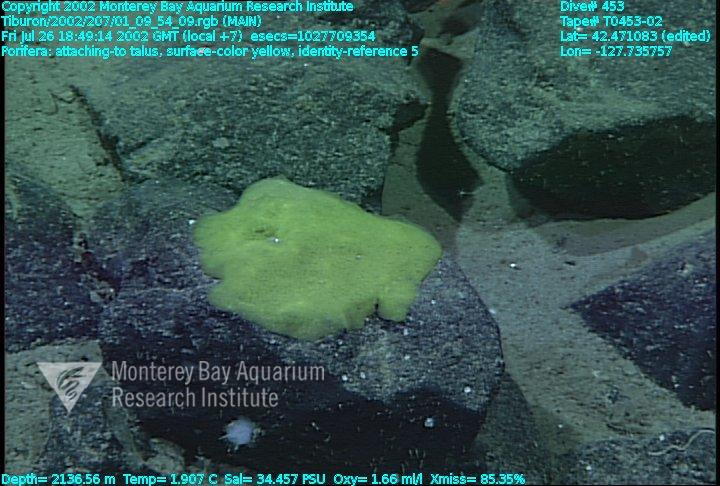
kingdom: Animalia
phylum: Porifera
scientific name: Porifera
